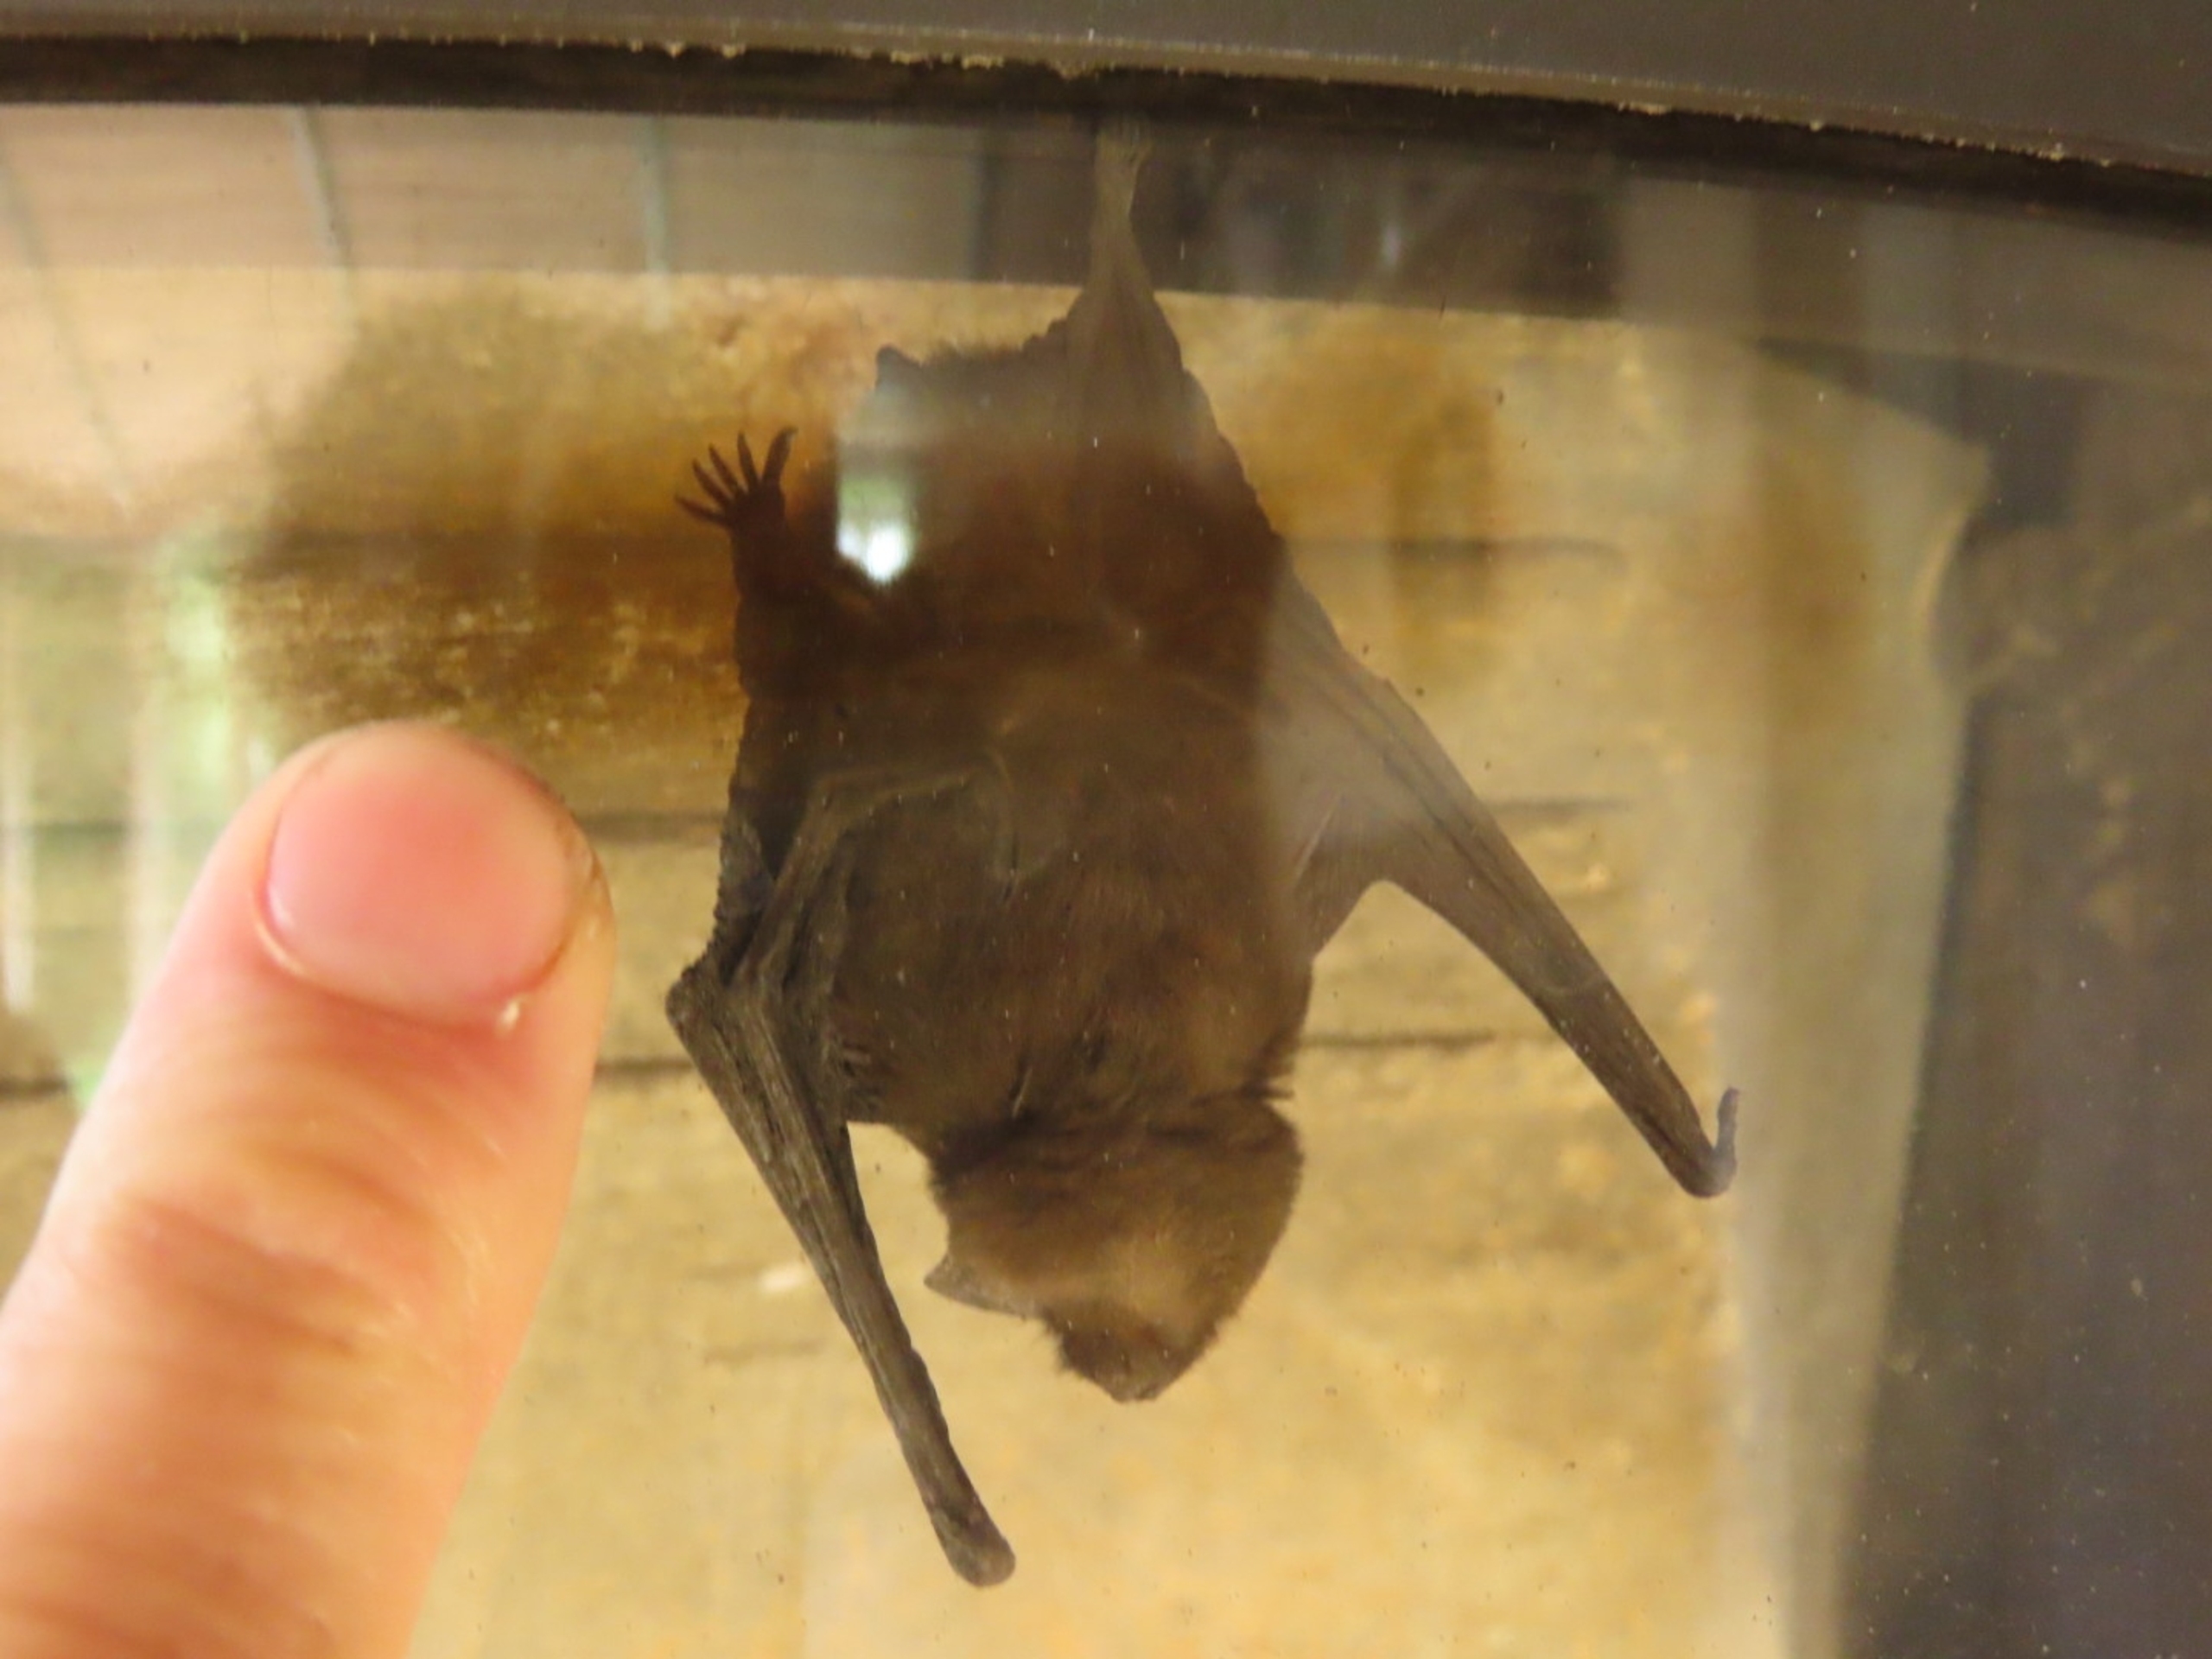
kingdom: Animalia
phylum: Chordata
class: Mammalia
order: Chiroptera
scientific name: Chiroptera
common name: Flagermus
